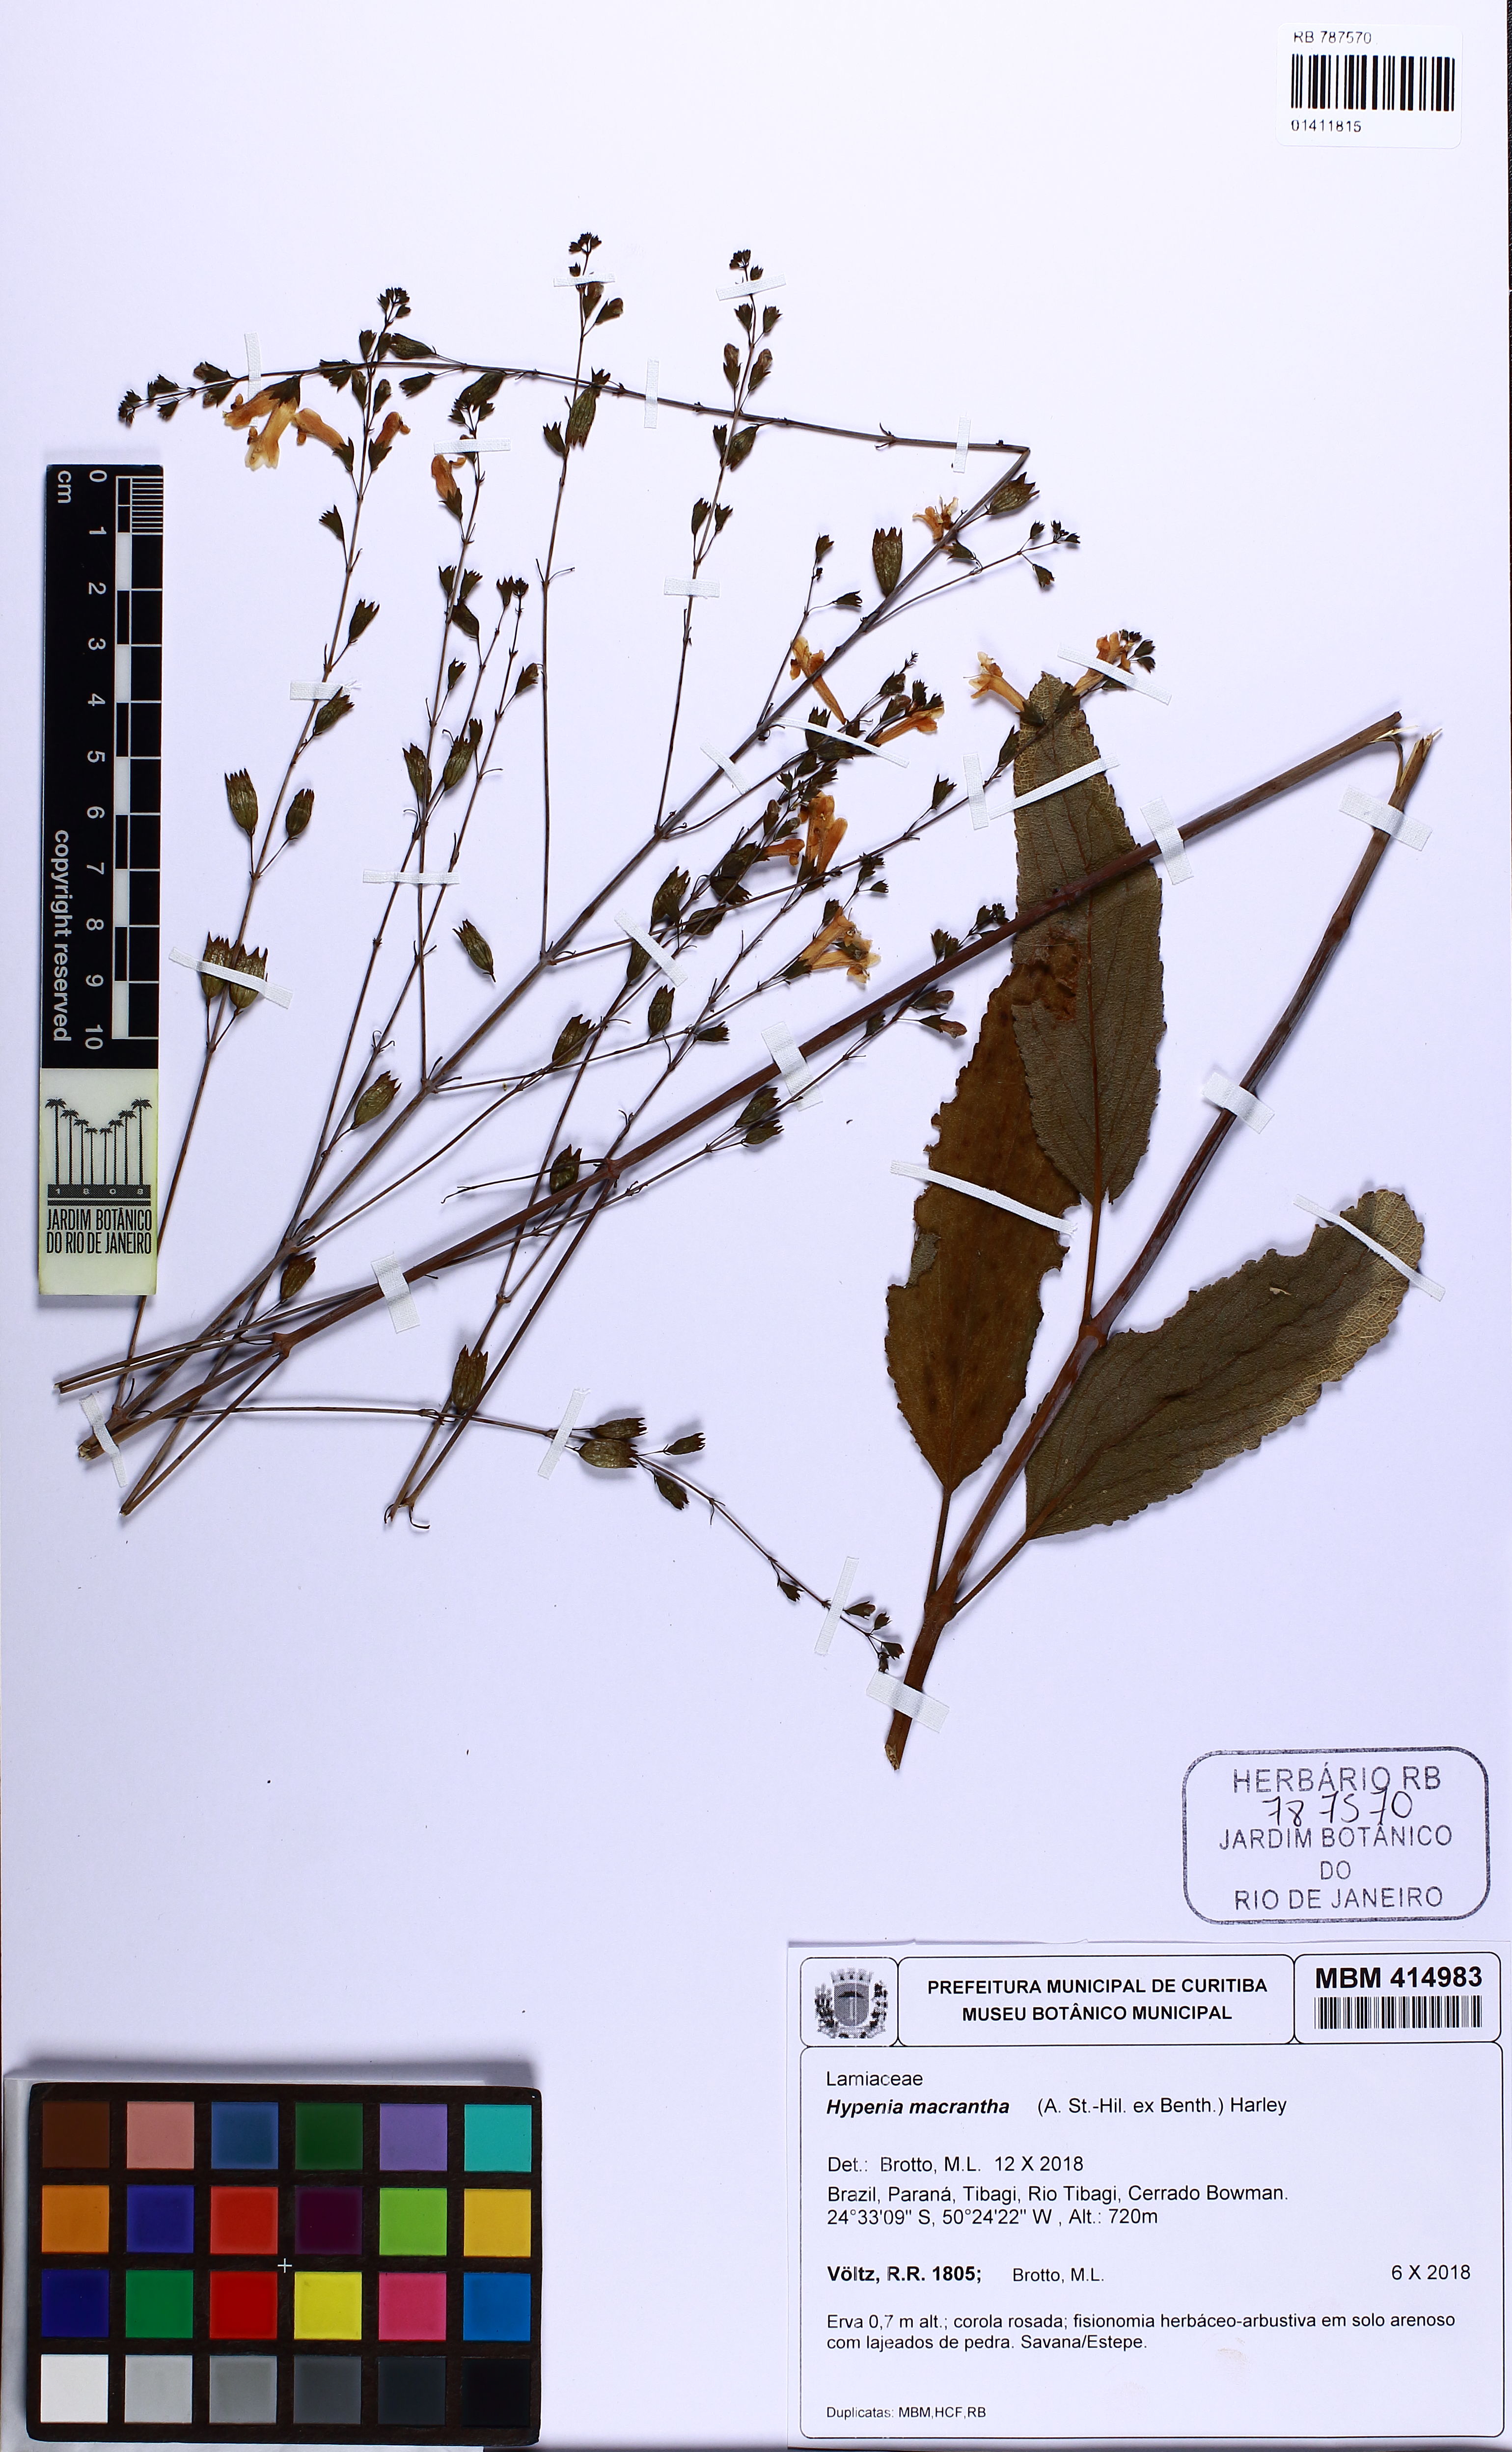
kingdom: Plantae
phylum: Tracheophyta
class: Magnoliopsida
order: Lamiales
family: Lamiaceae
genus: Hypenia
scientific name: Hypenia macrantha
